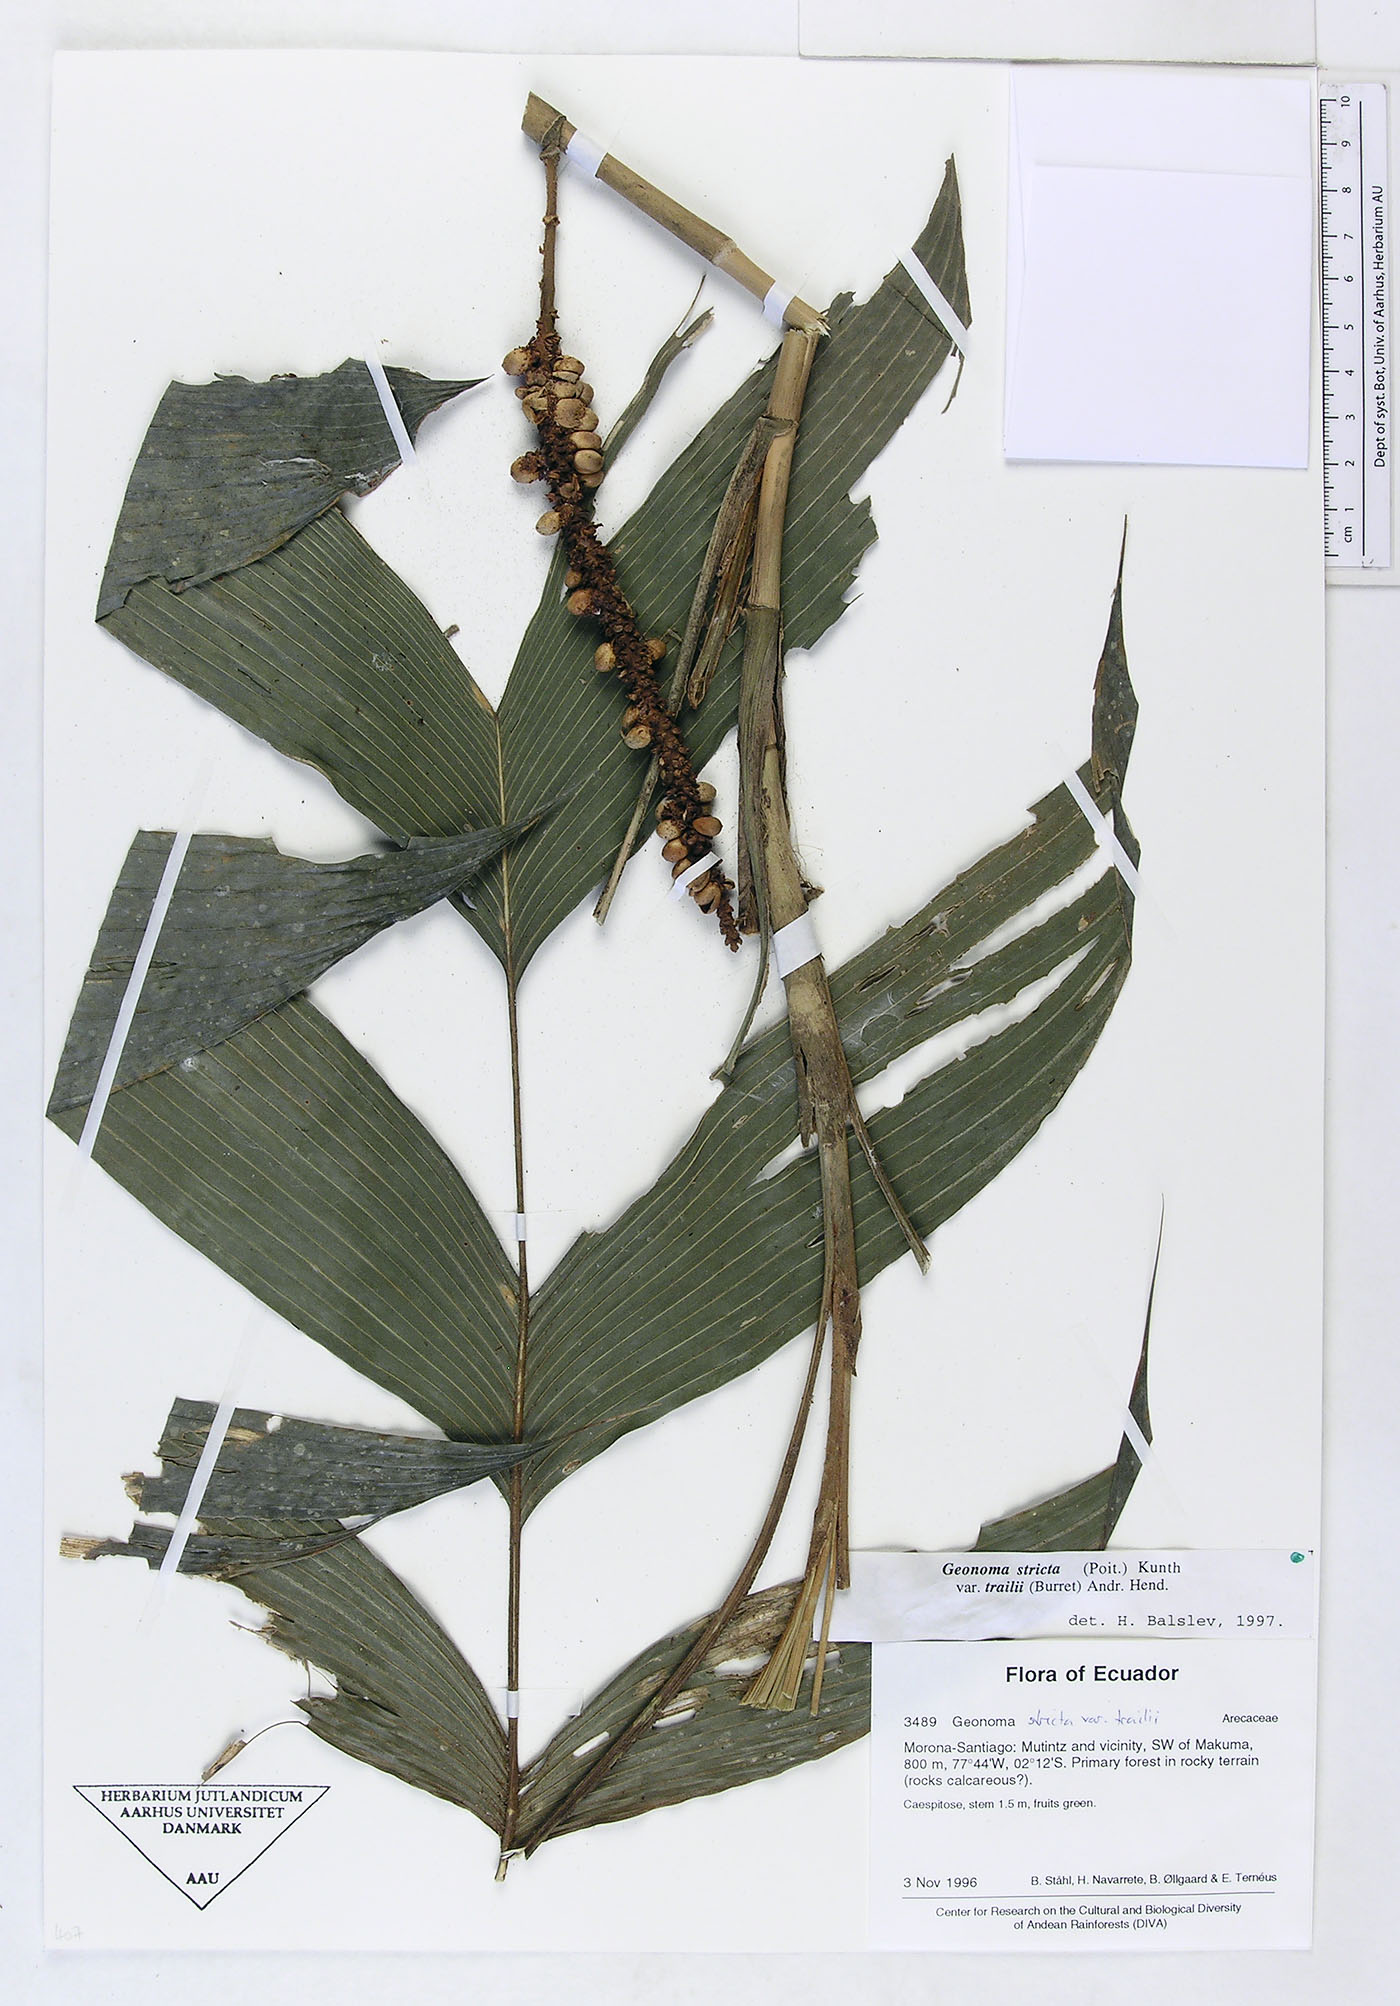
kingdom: Plantae
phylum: Tracheophyta
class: Liliopsida
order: Arecales
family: Arecaceae
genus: Geonoma
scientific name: Geonoma stricta
